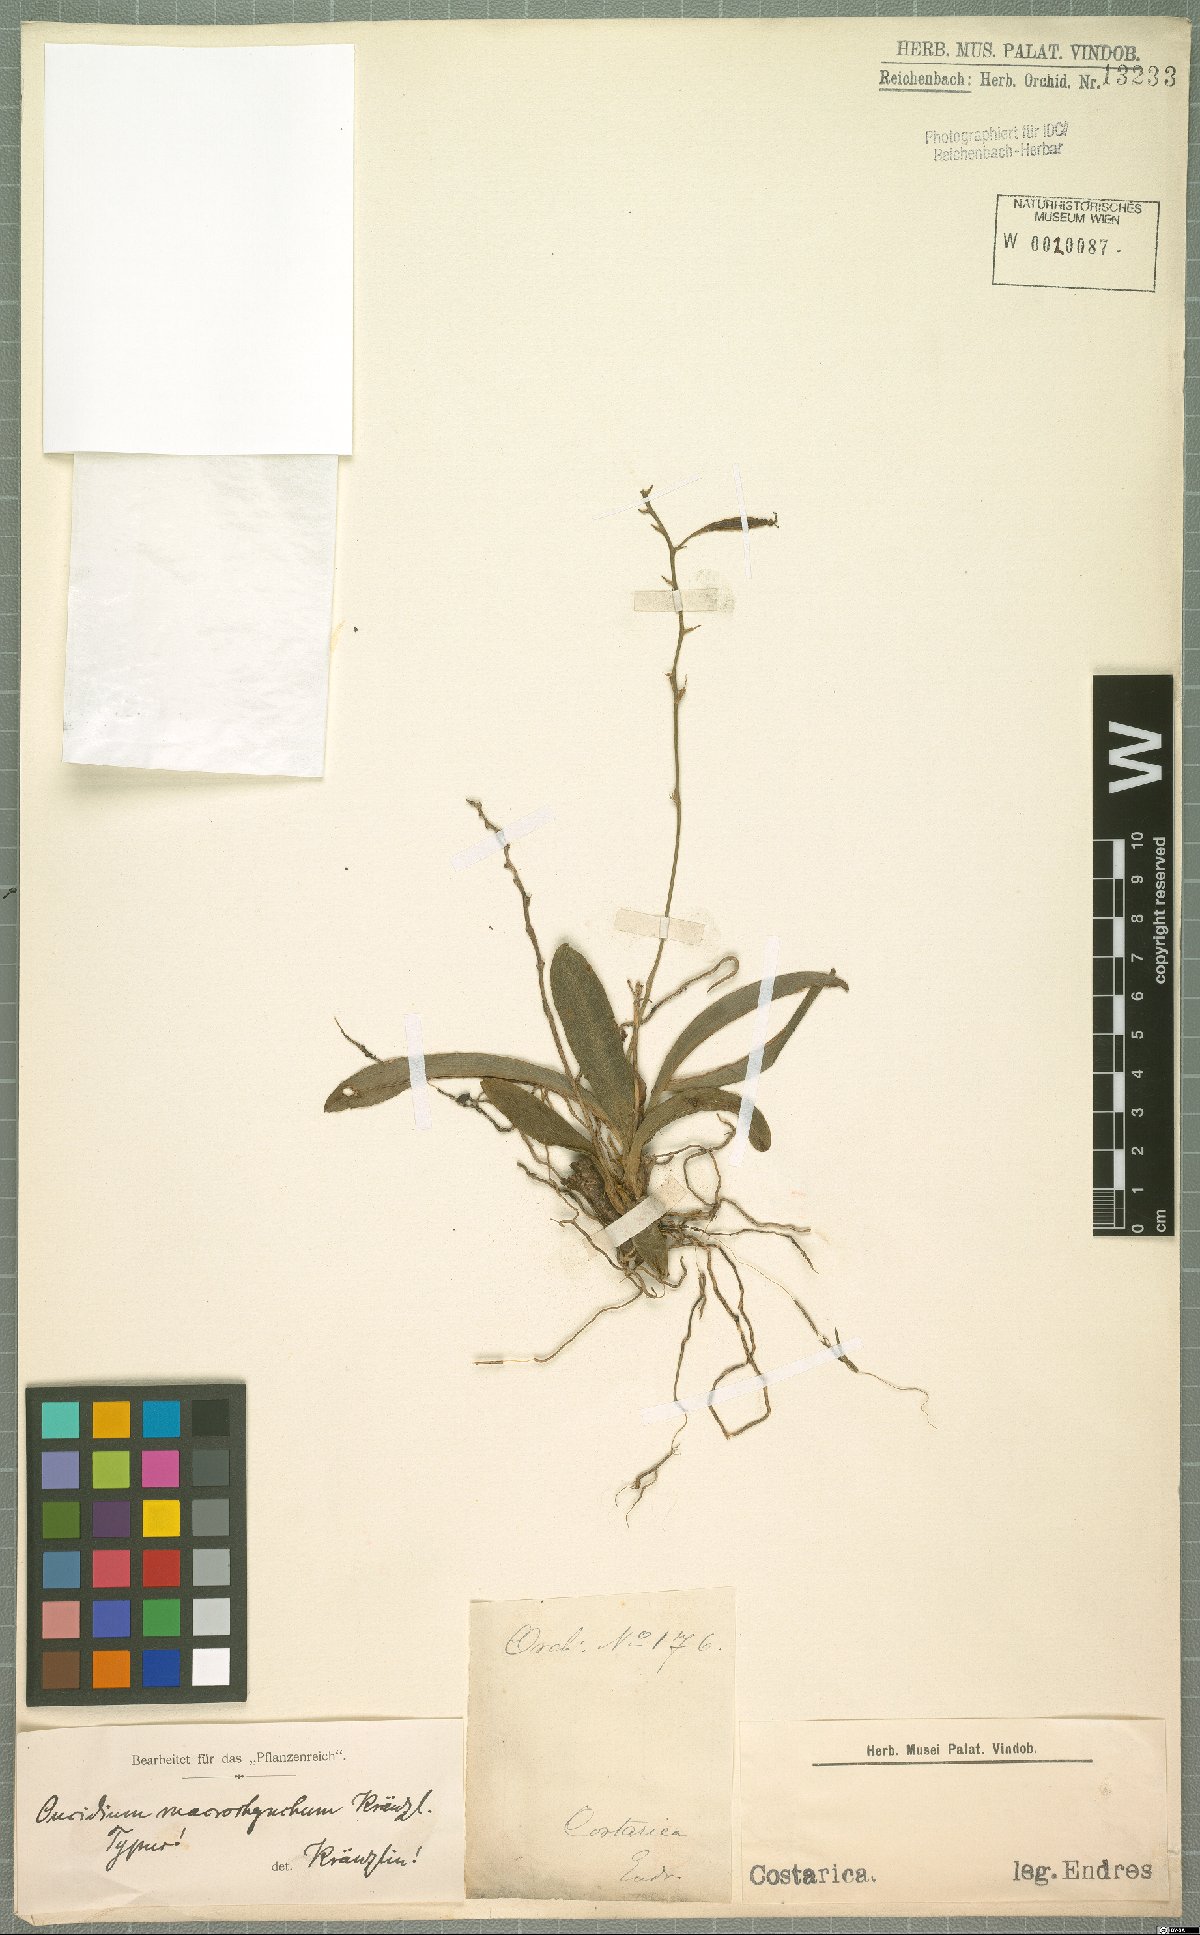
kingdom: Plantae
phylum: Tracheophyta
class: Liliopsida
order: Asparagales
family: Orchidaceae
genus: Oncidium
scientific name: Oncidium cheirophorum
